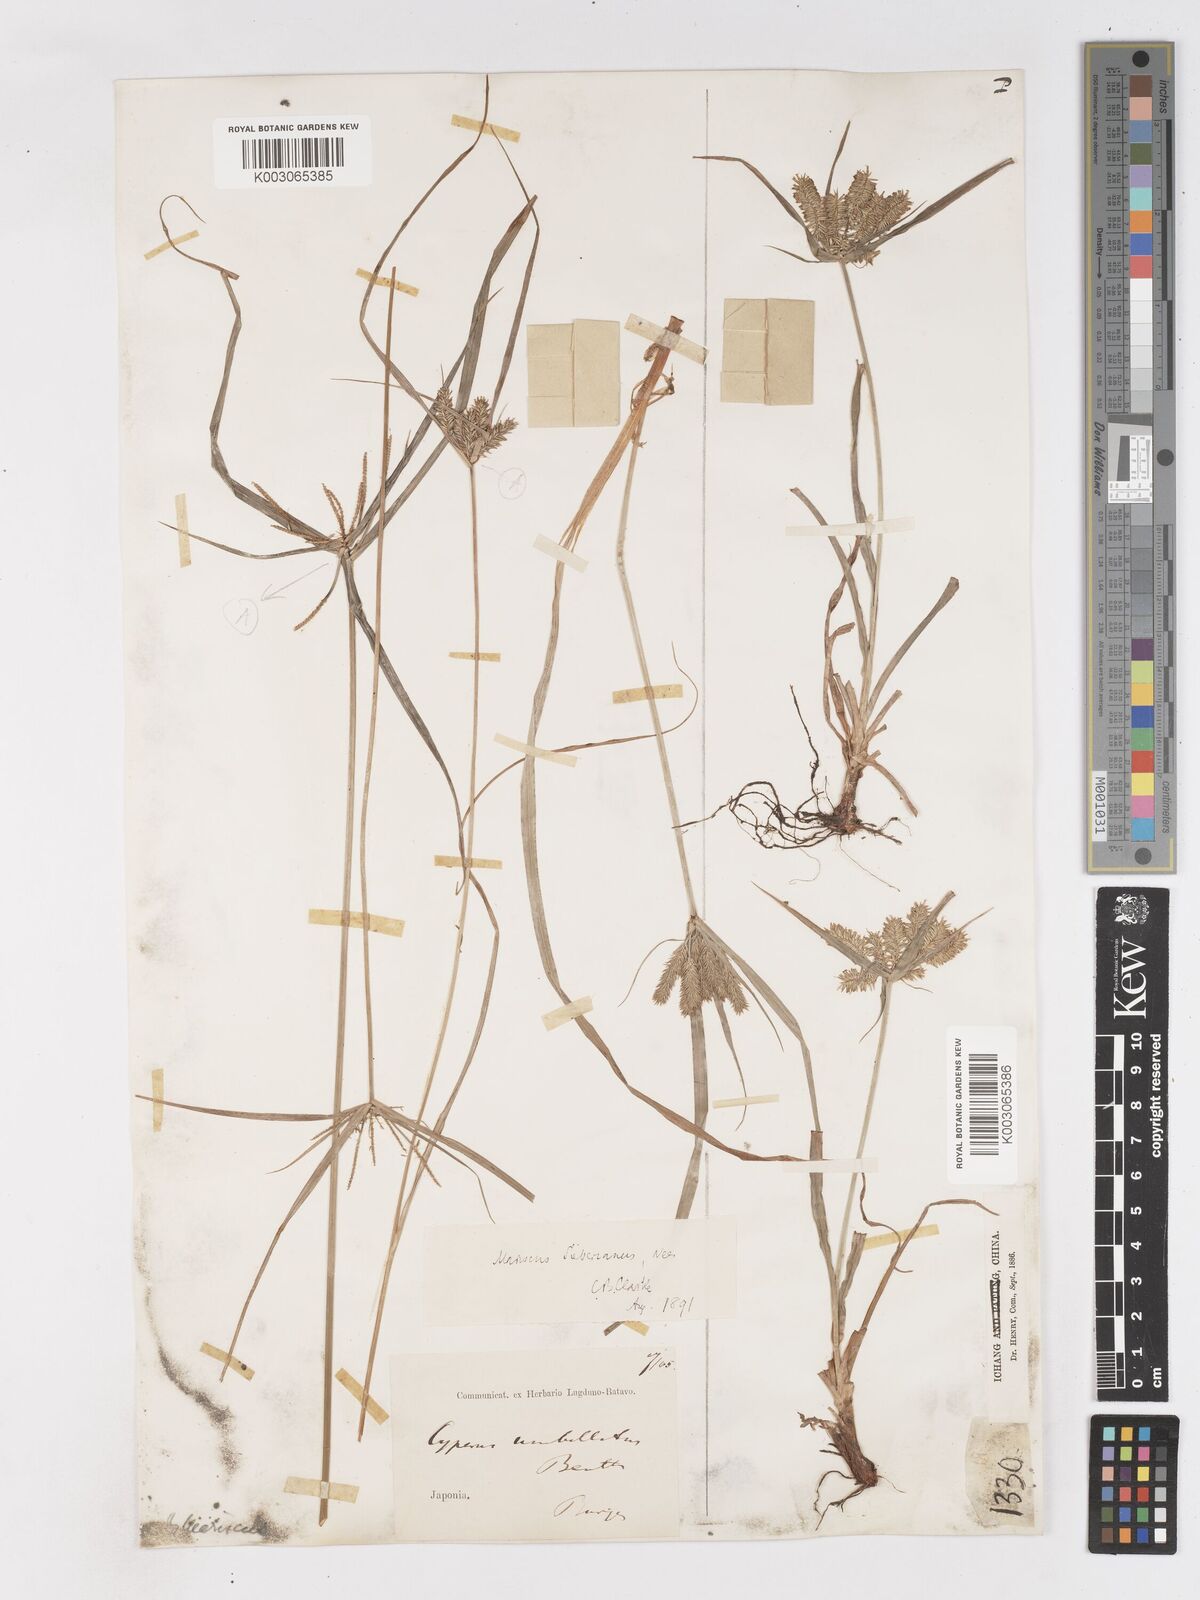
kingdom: Plantae
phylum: Tracheophyta
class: Liliopsida
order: Poales
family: Cyperaceae
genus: Cyperus
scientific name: Cyperus cyperoides
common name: Pacific island flat sedge
